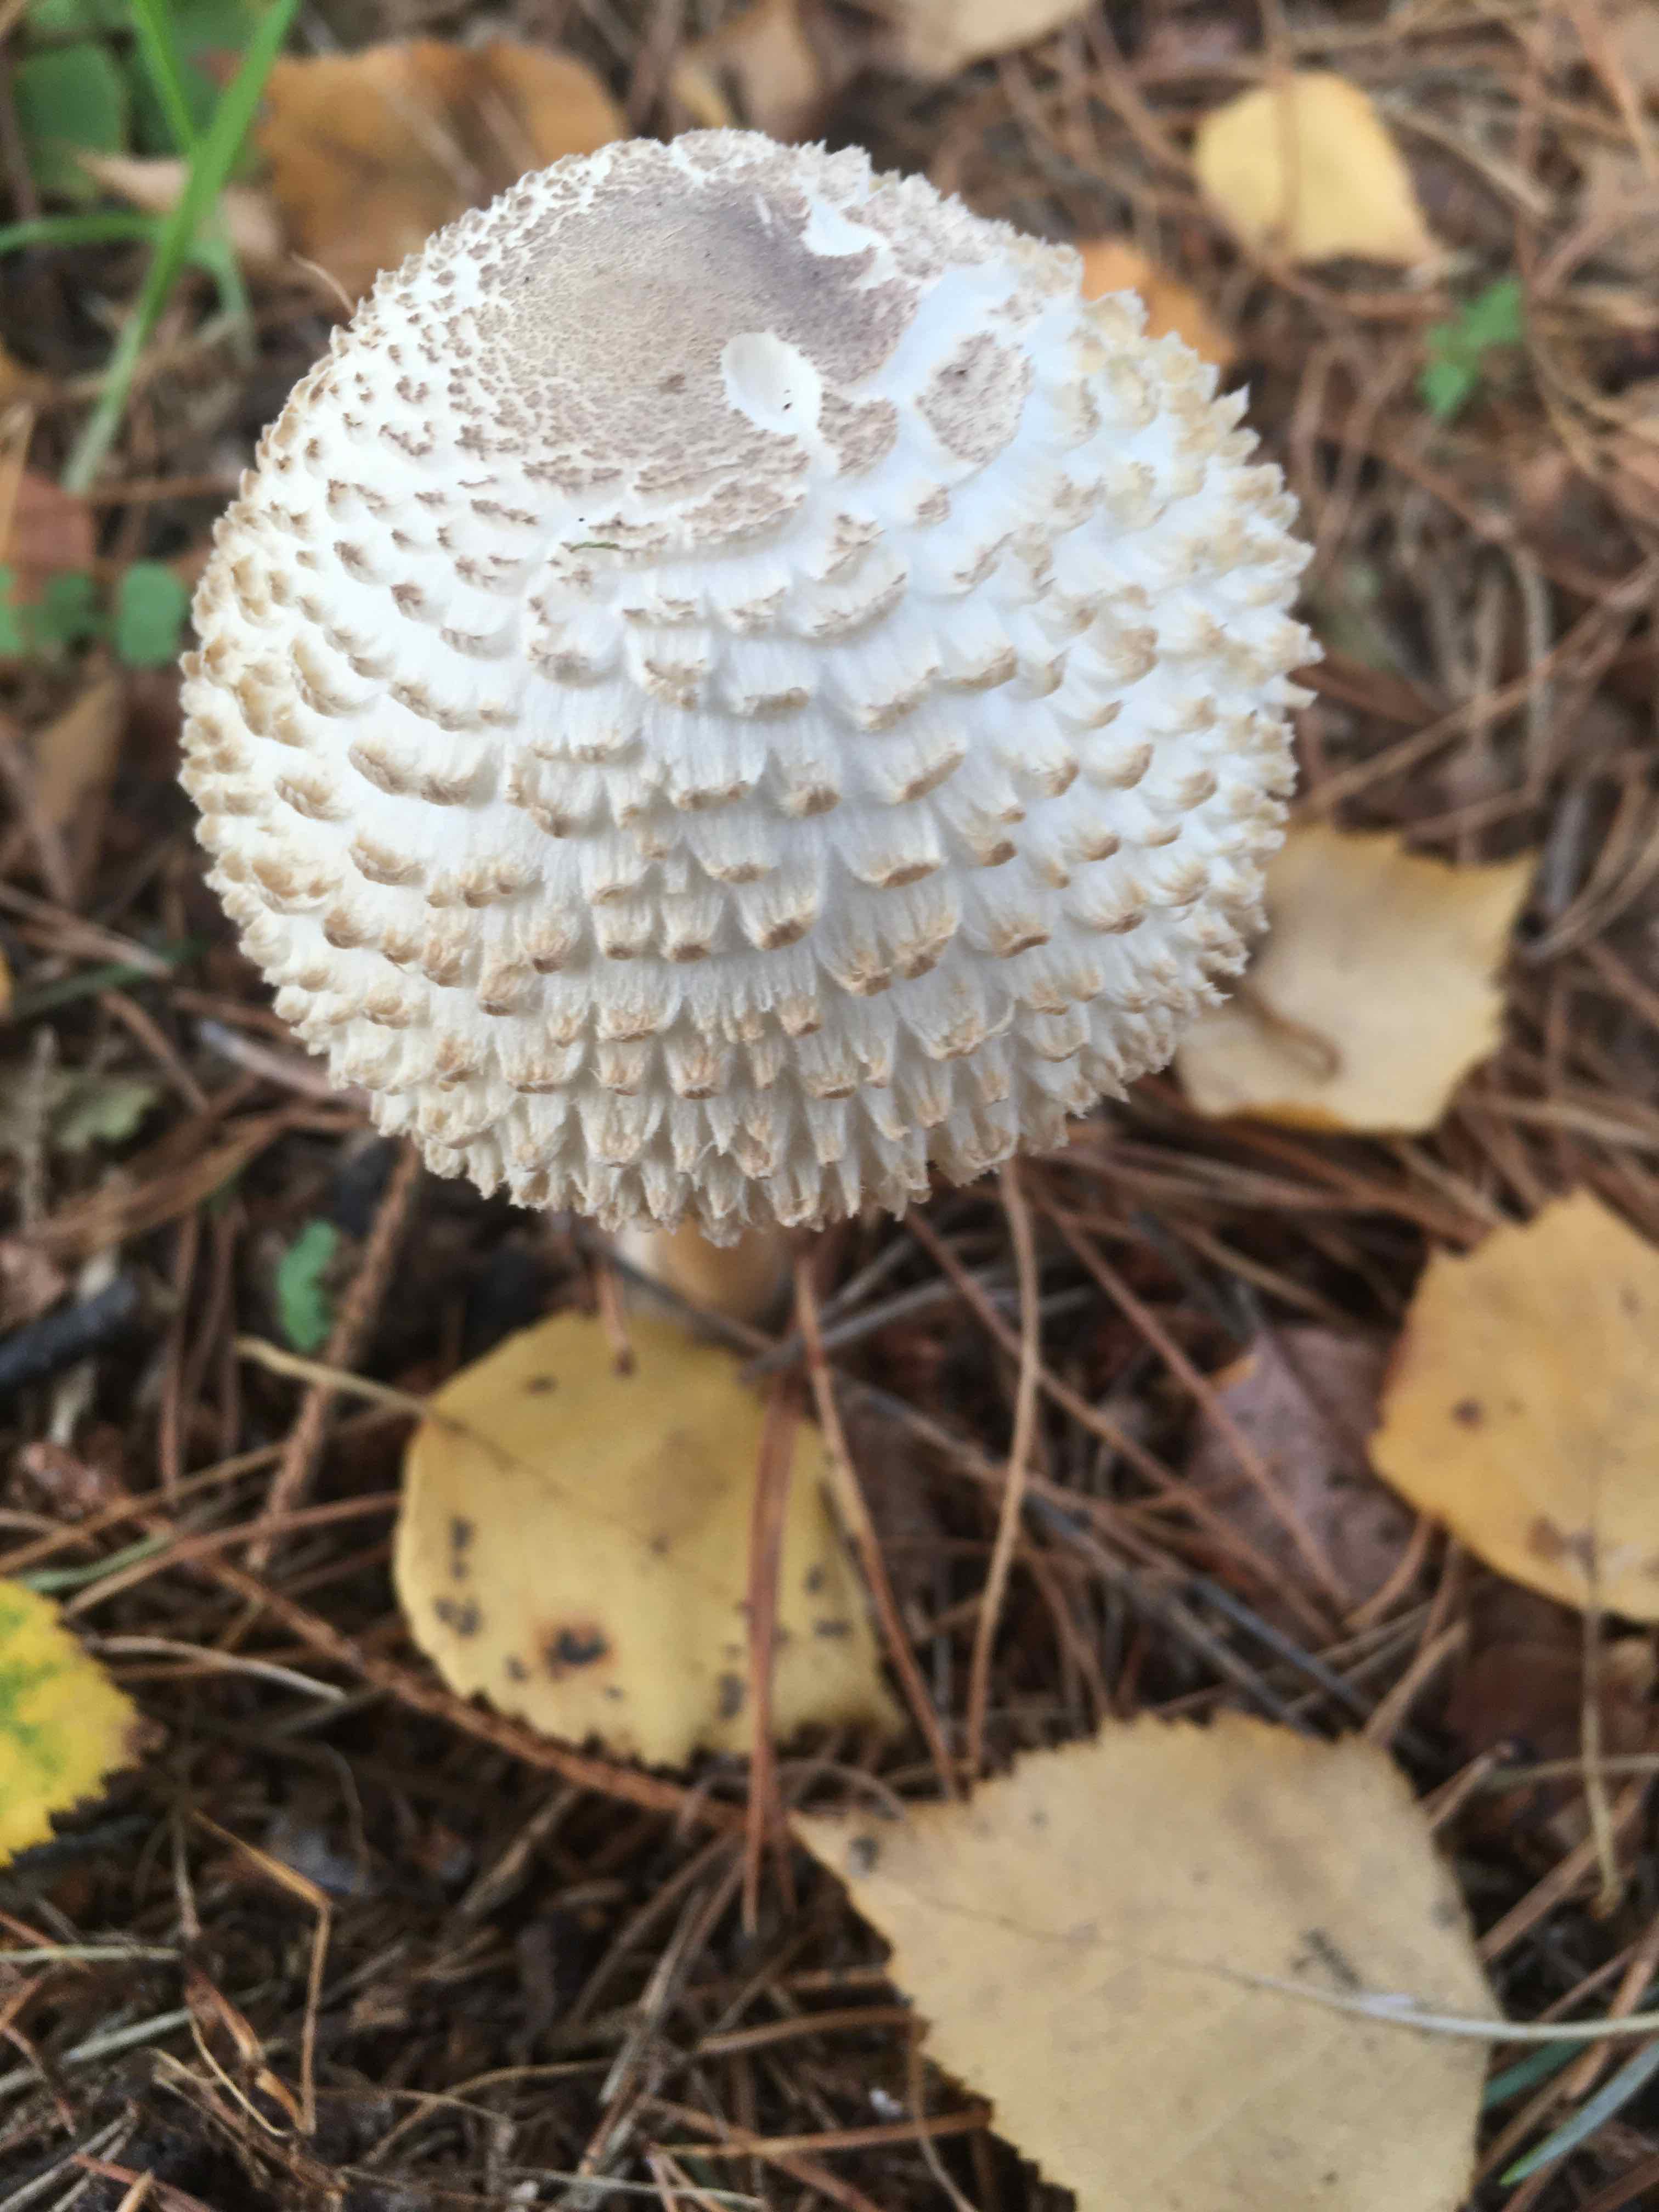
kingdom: Fungi
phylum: Basidiomycota
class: Agaricomycetes
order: Agaricales
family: Agaricaceae
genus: Leucoagaricus
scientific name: Leucoagaricus nympharum
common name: gran-silkehat
